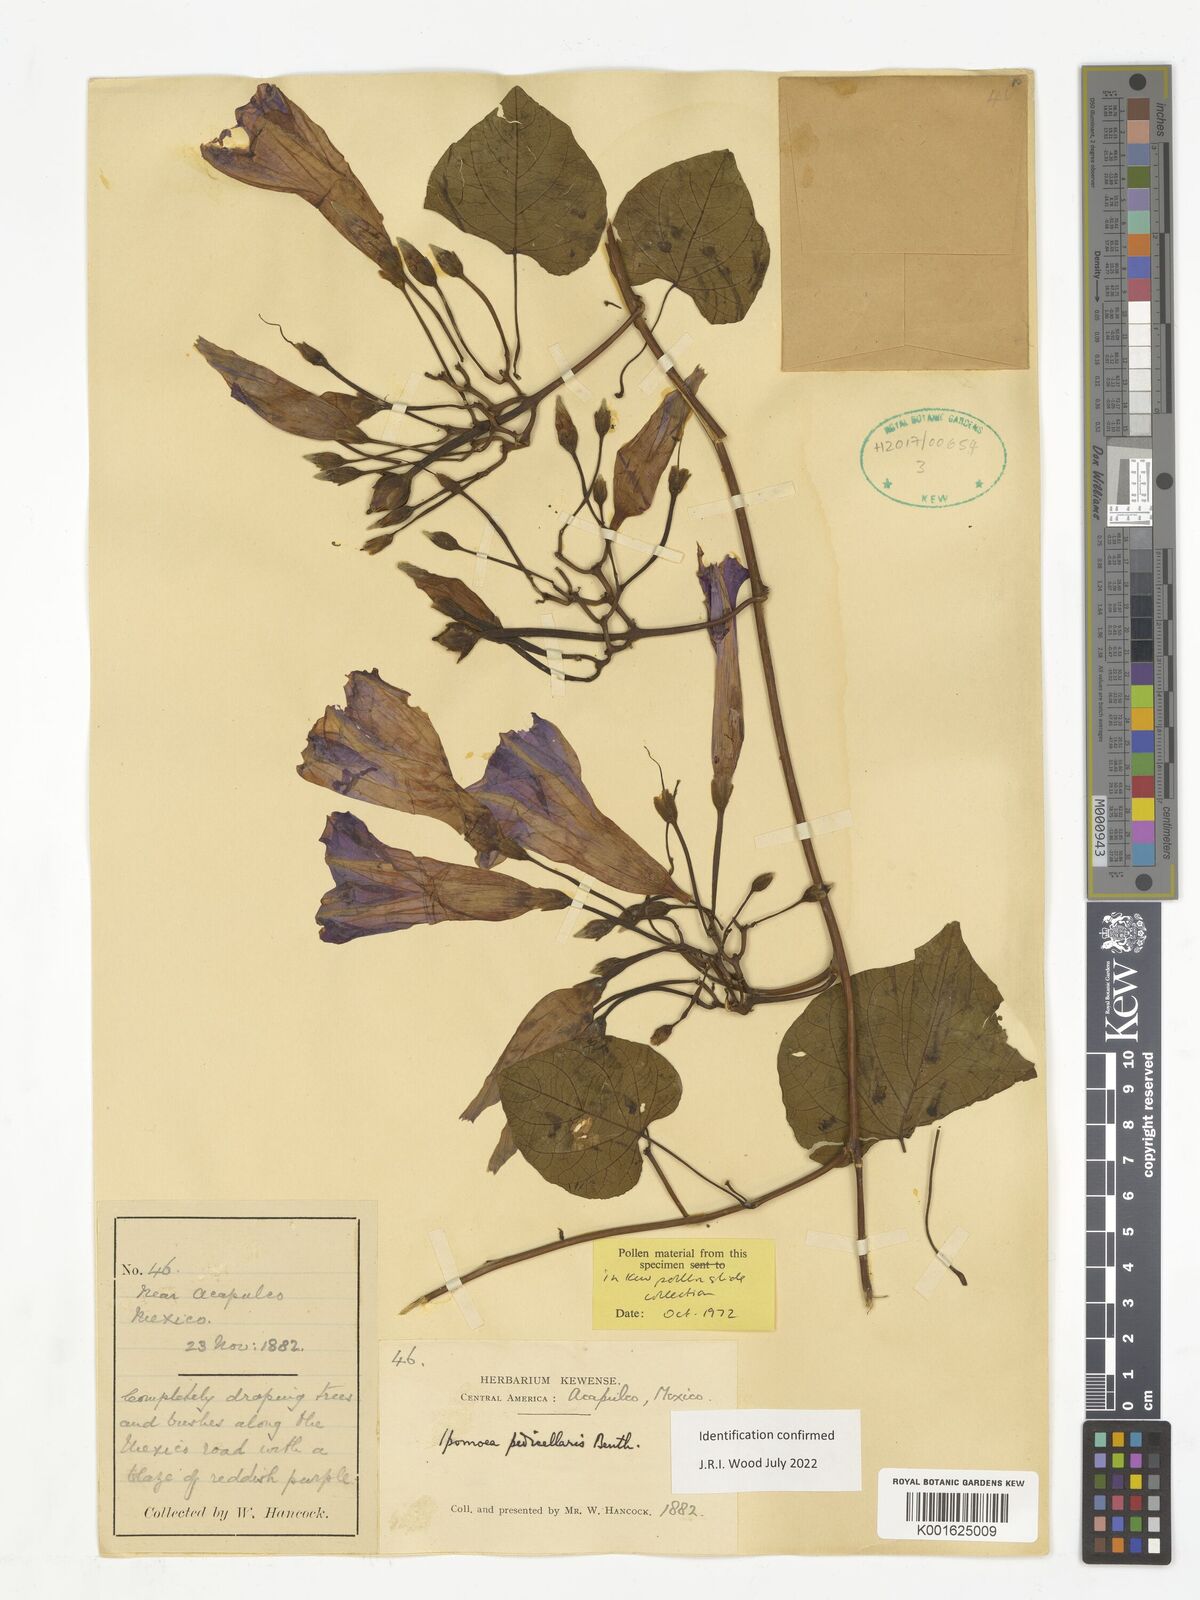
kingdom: Plantae
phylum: Tracheophyta
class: Magnoliopsida
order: Solanales
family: Convolvulaceae
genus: Ipomoea
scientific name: Ipomoea pedicellaris
